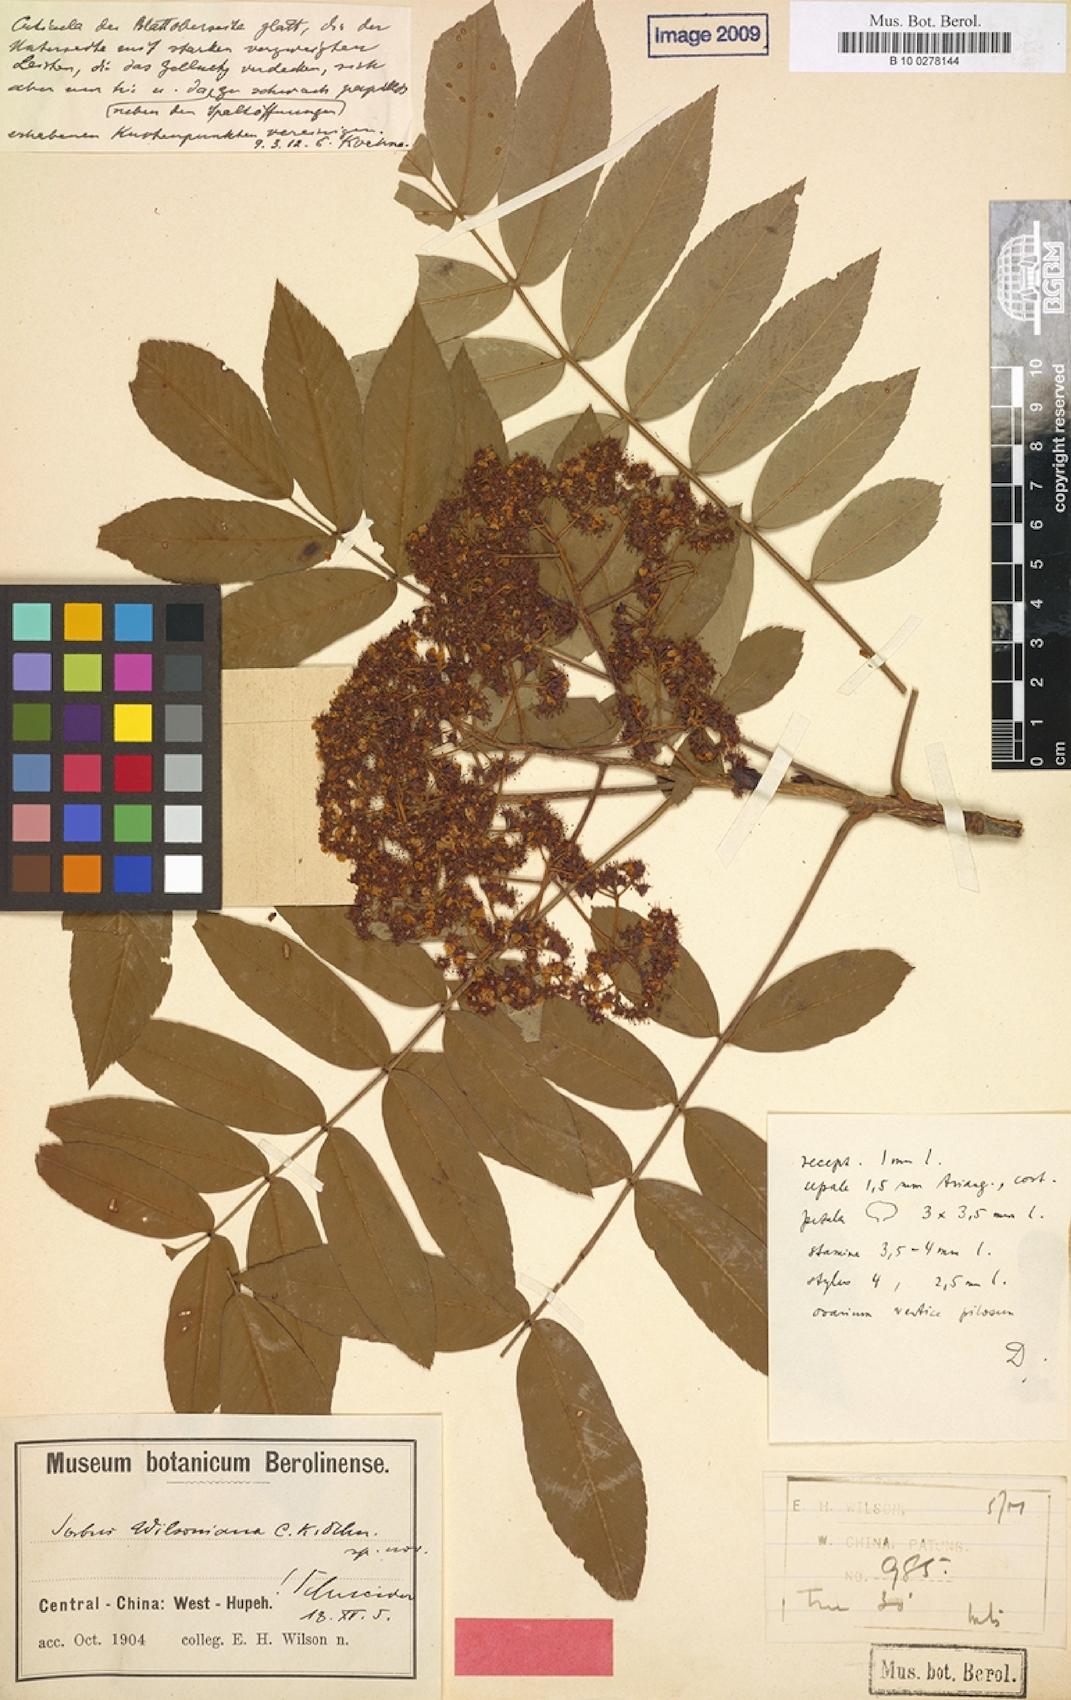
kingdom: Plantae
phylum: Tracheophyta
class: Magnoliopsida
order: Rosales
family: Rosaceae
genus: Sorbus
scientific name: Sorbus wilsoniana
